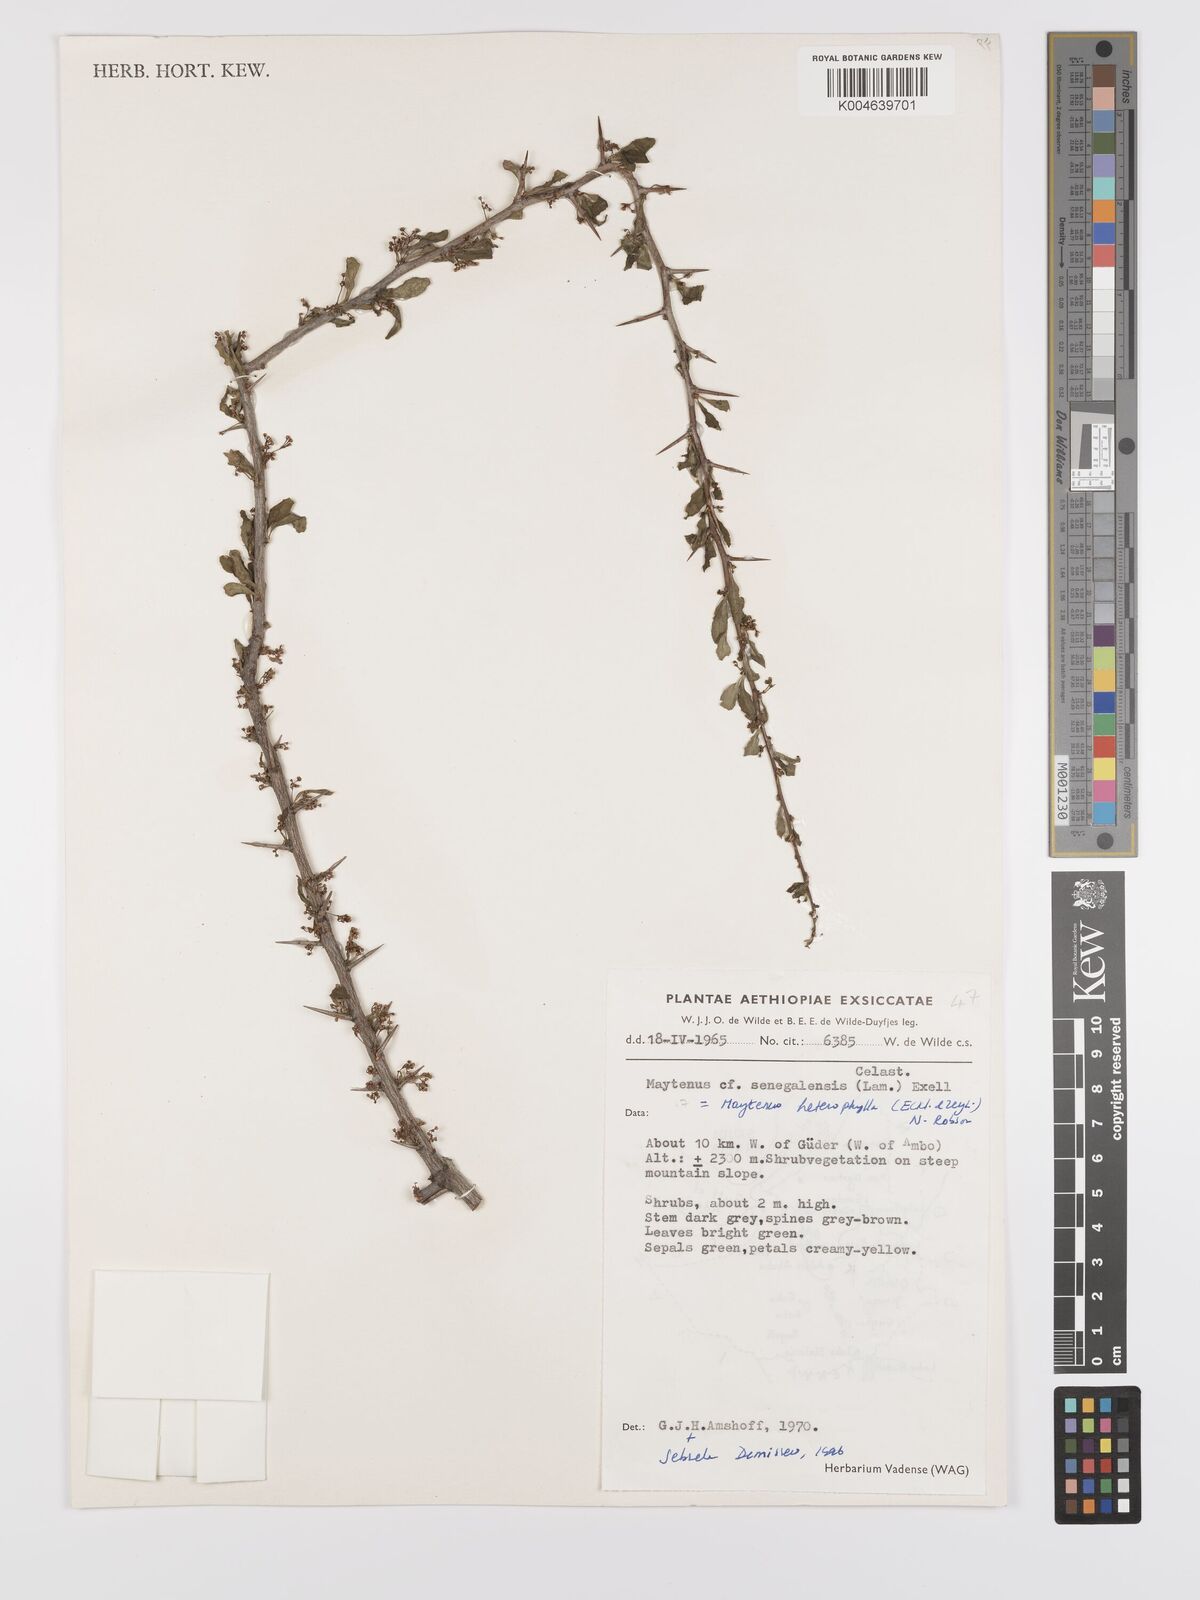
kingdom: Plantae
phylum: Tracheophyta
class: Magnoliopsida
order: Celastrales
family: Celastraceae
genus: Gymnosporia
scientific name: Gymnosporia heterophylla
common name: Angle-stem spikethorn
